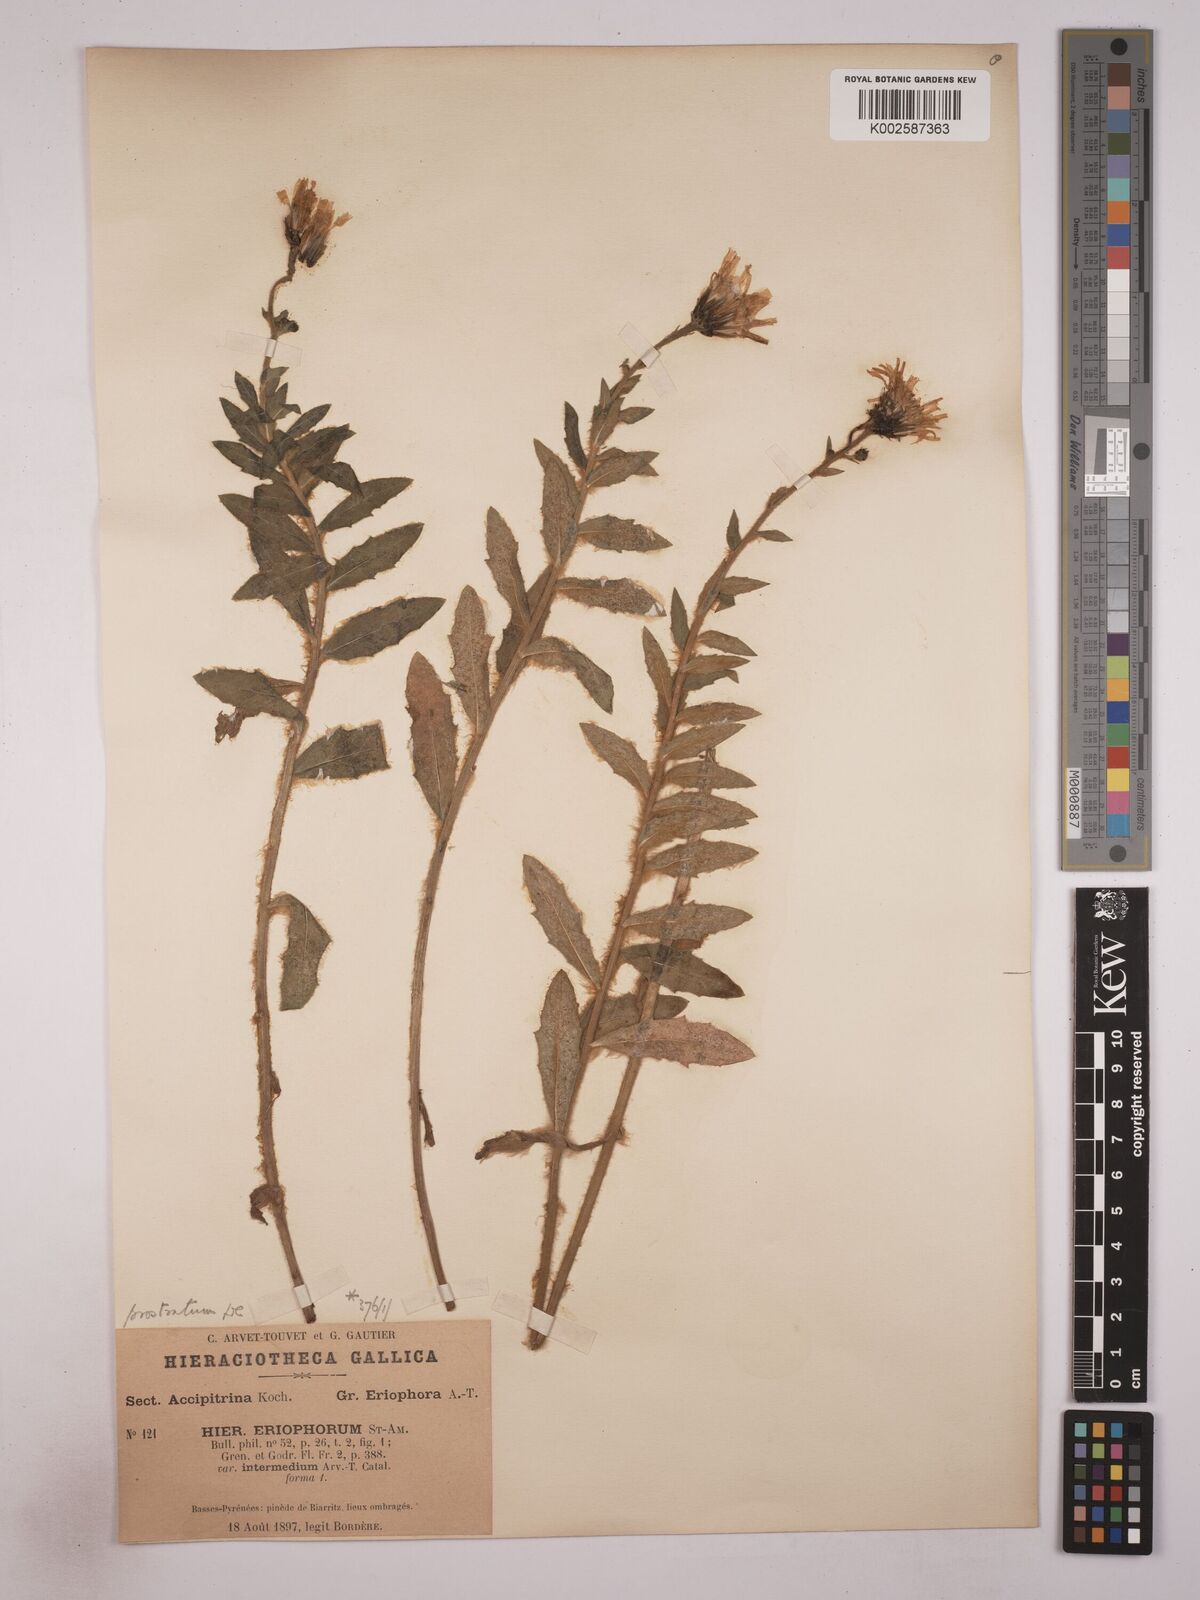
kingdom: Plantae
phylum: Tracheophyta
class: Magnoliopsida
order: Asterales
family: Asteraceae
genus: Hieracium
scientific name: Hieracium prostratum
